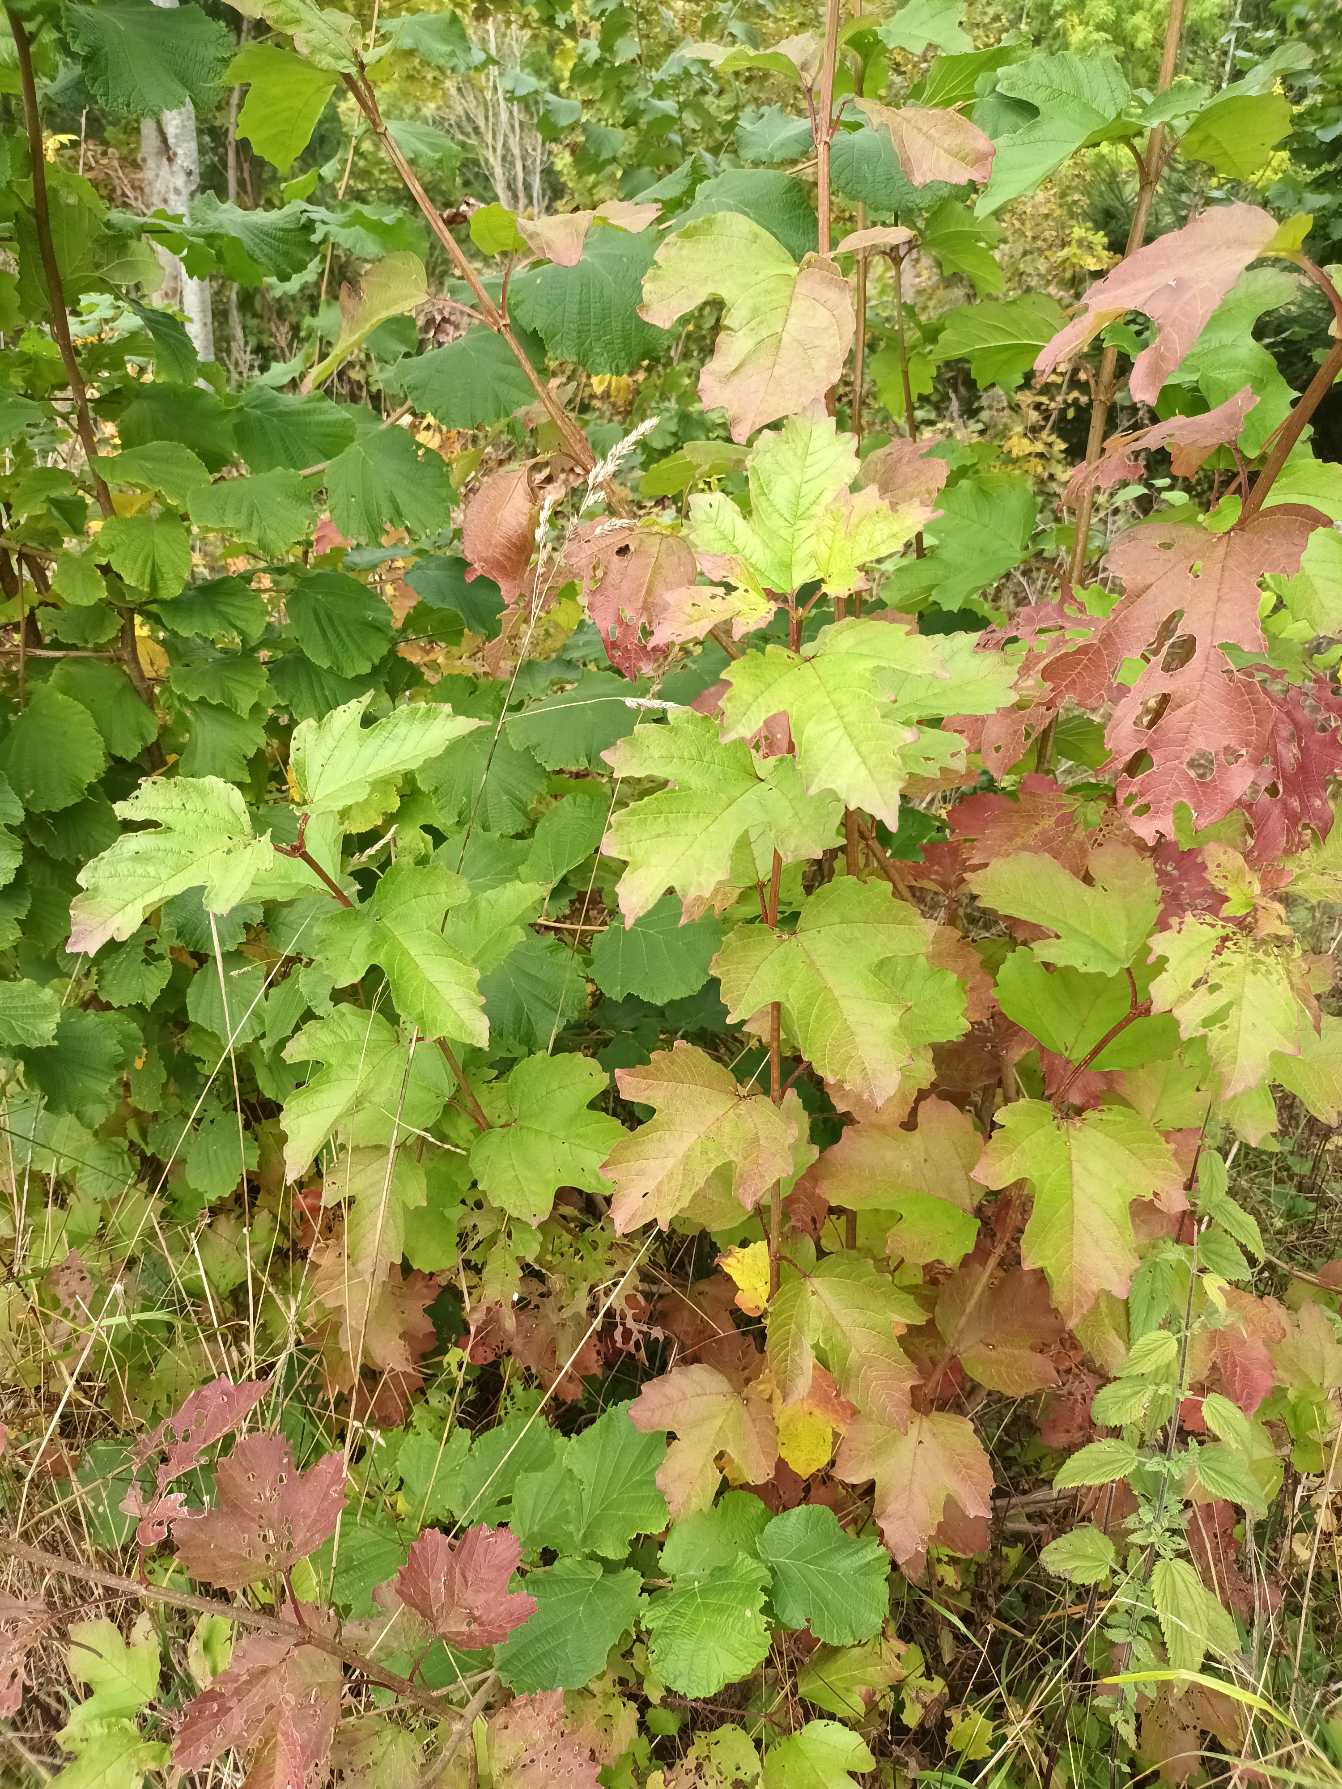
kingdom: Plantae
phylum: Tracheophyta
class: Magnoliopsida
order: Dipsacales
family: Viburnaceae
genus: Viburnum
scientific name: Viburnum opulus
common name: Kvalkved
